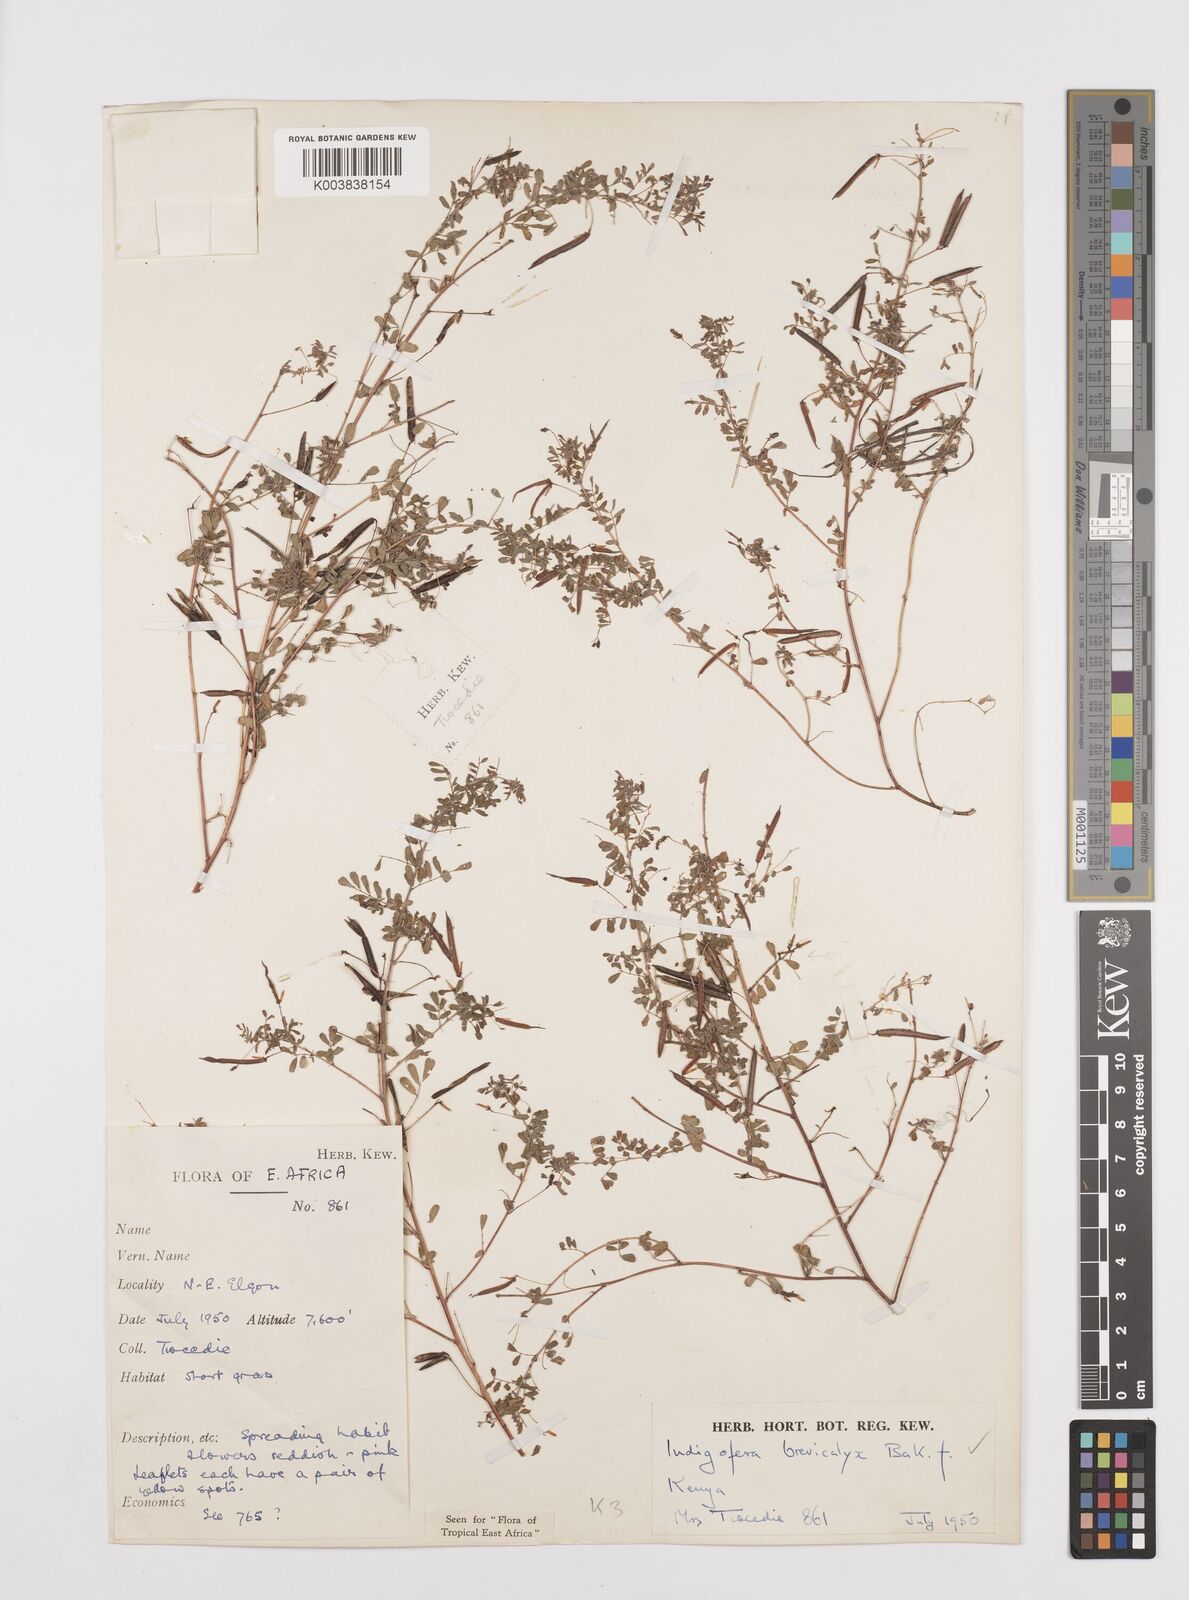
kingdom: Plantae
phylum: Tracheophyta
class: Magnoliopsida
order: Fabales
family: Fabaceae
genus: Indigofera
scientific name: Indigofera brevicalyx
